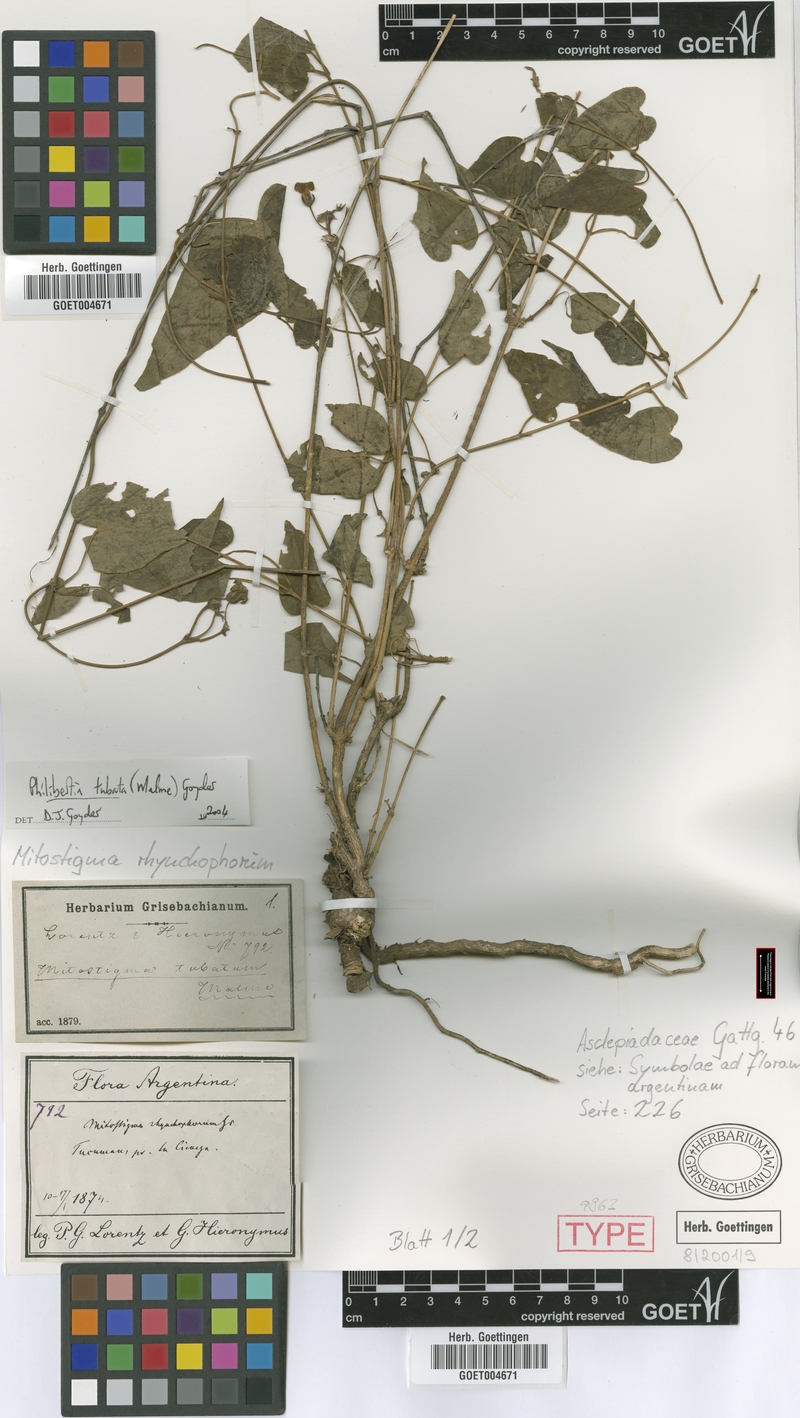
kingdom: Plantae
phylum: Tracheophyta
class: Magnoliopsida
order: Gentianales
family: Apocynaceae
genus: Philibertia
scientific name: Philibertia tubata
